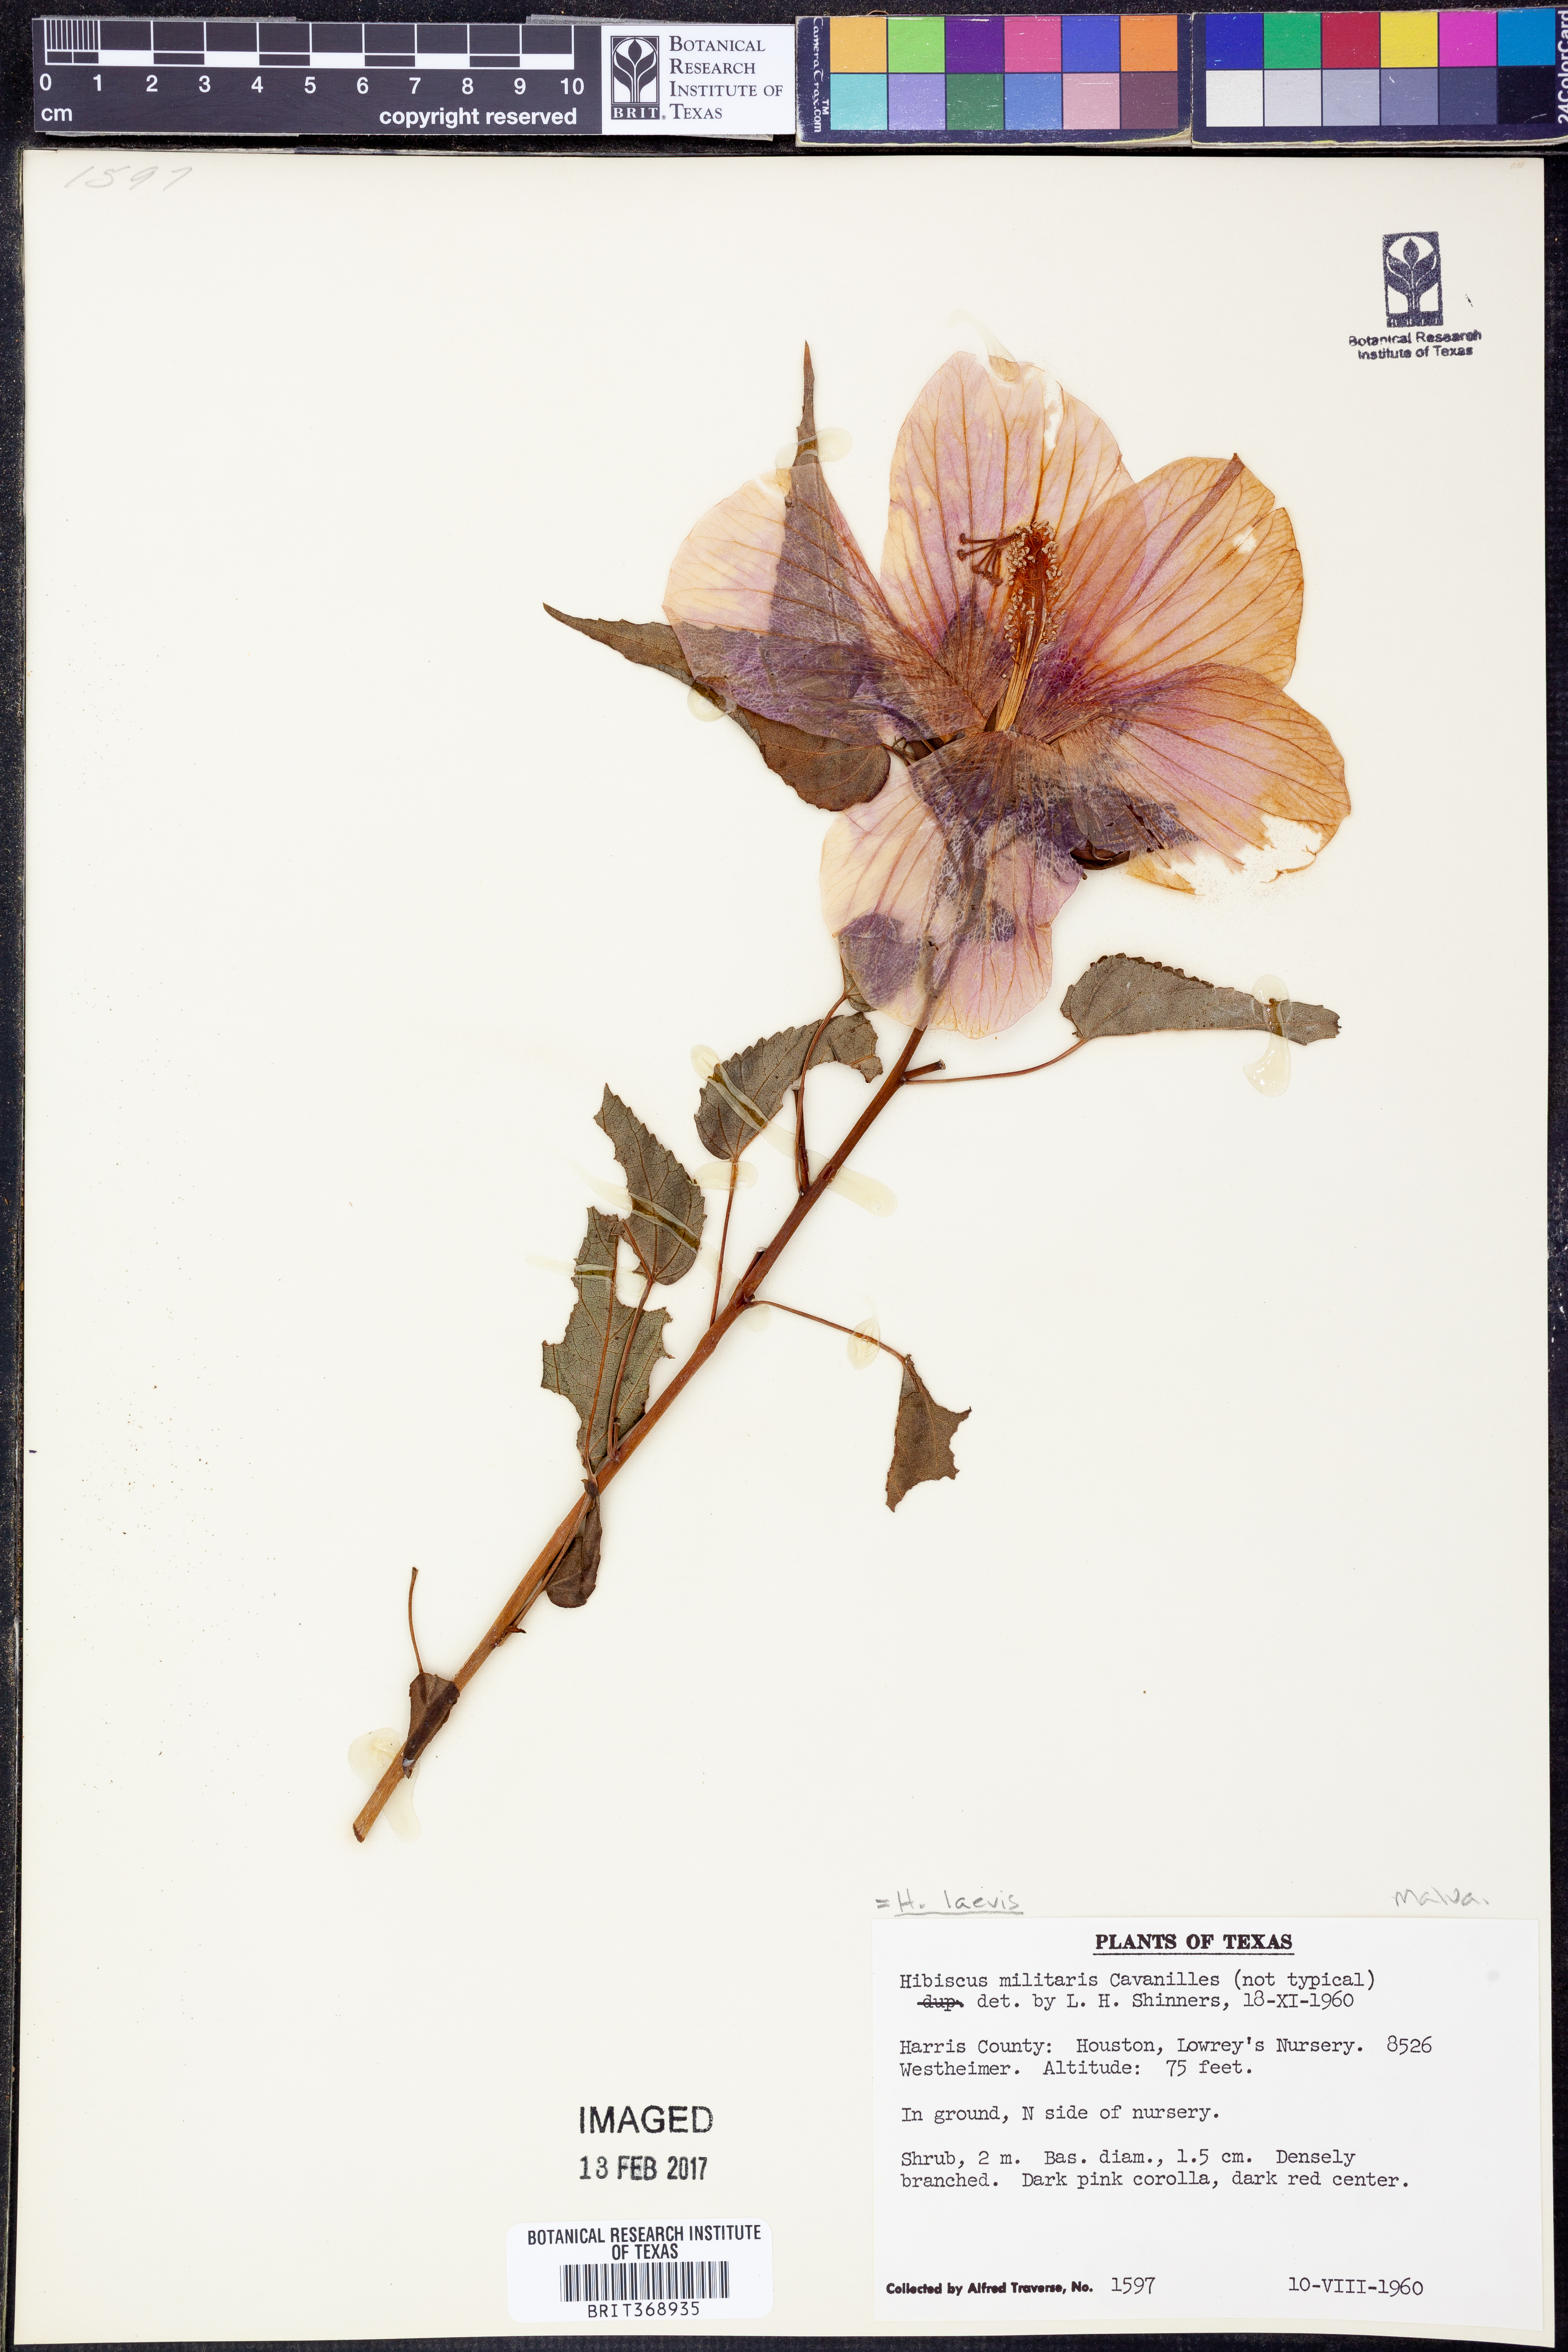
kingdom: Plantae
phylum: Tracheophyta
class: Magnoliopsida
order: Malvales
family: Malvaceae
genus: Hibiscus
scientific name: Hibiscus laevis
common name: Scarlet rose-mallow
